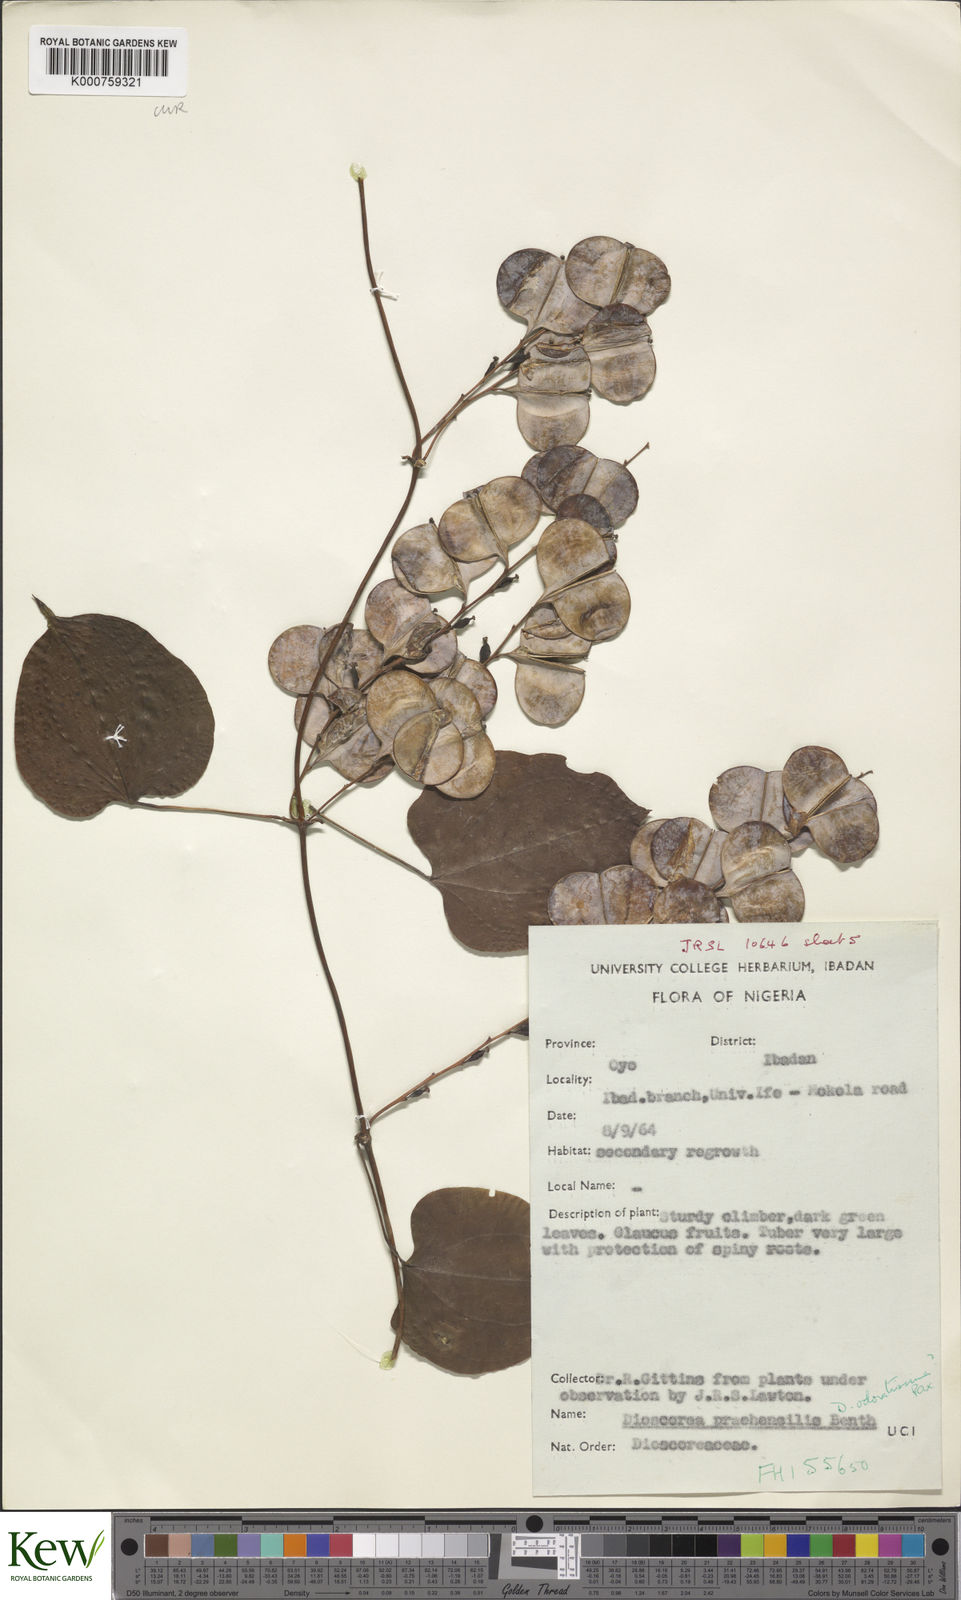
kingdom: Plantae
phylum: Tracheophyta
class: Liliopsida
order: Dioscoreales
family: Dioscoreaceae
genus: Dioscorea
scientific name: Dioscorea praehensilis
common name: Bush yam
